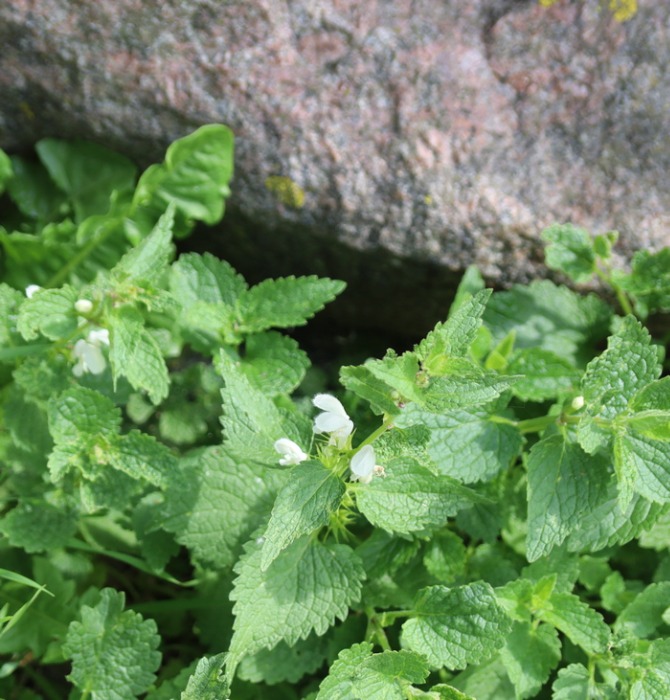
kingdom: Plantae
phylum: Tracheophyta
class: Magnoliopsida
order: Lamiales
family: Lamiaceae
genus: Lamium
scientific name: Lamium album
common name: Døvnælde
